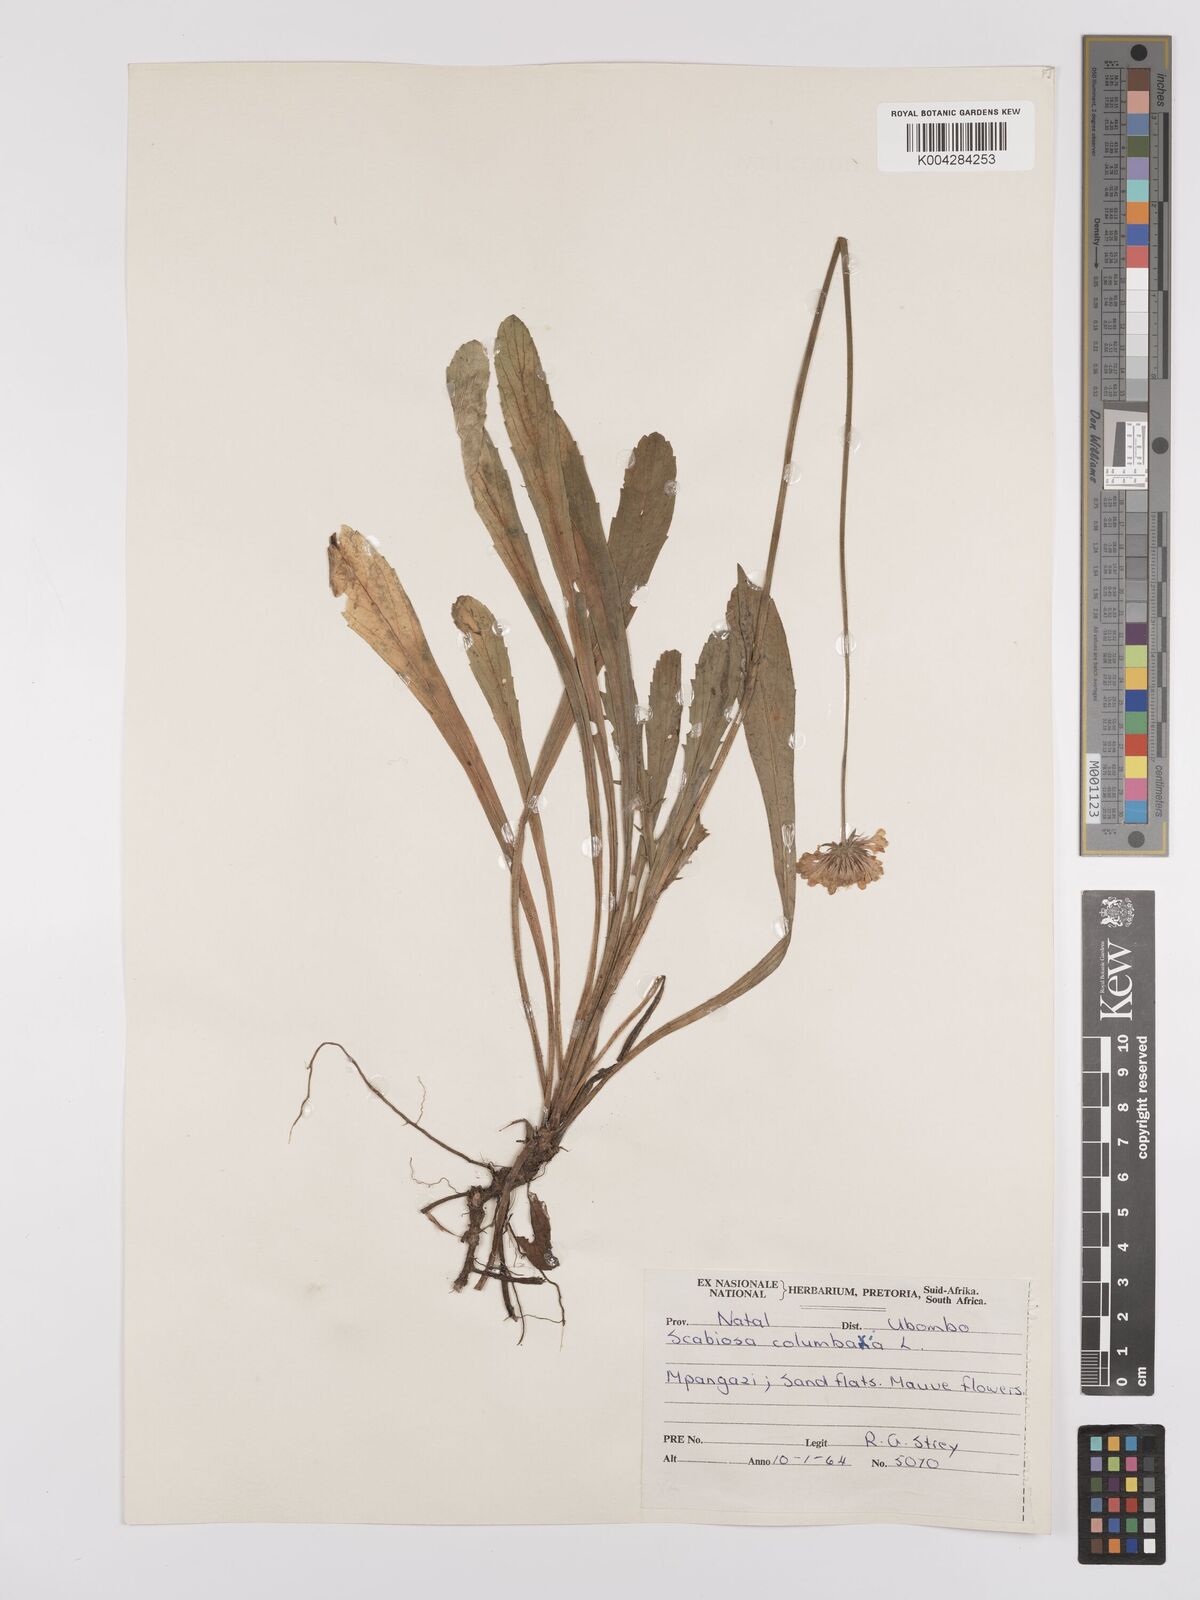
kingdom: Plantae
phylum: Tracheophyta
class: Magnoliopsida
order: Dipsacales
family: Caprifoliaceae
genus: Scabiosa
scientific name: Scabiosa columbaria
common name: Small scabious
